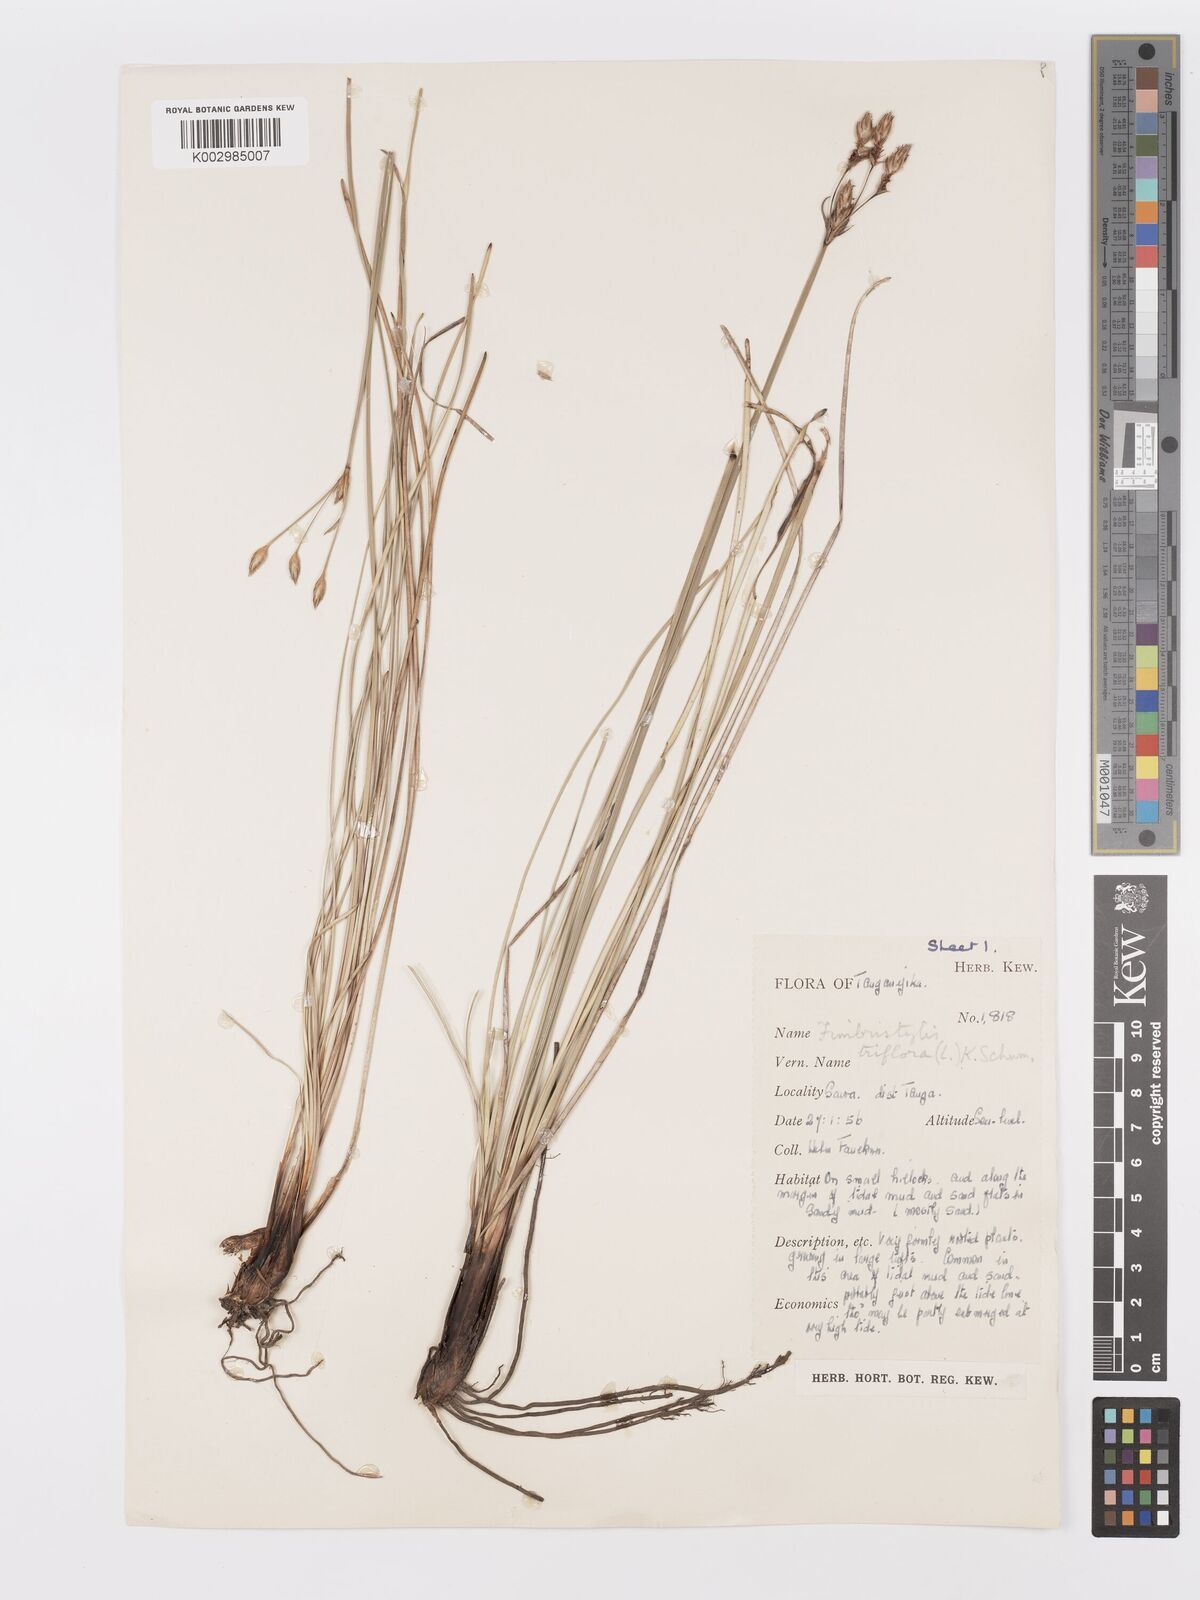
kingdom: Plantae
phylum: Tracheophyta
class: Liliopsida
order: Poales
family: Cyperaceae
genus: Abildgaardia
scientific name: Abildgaardia triflora
